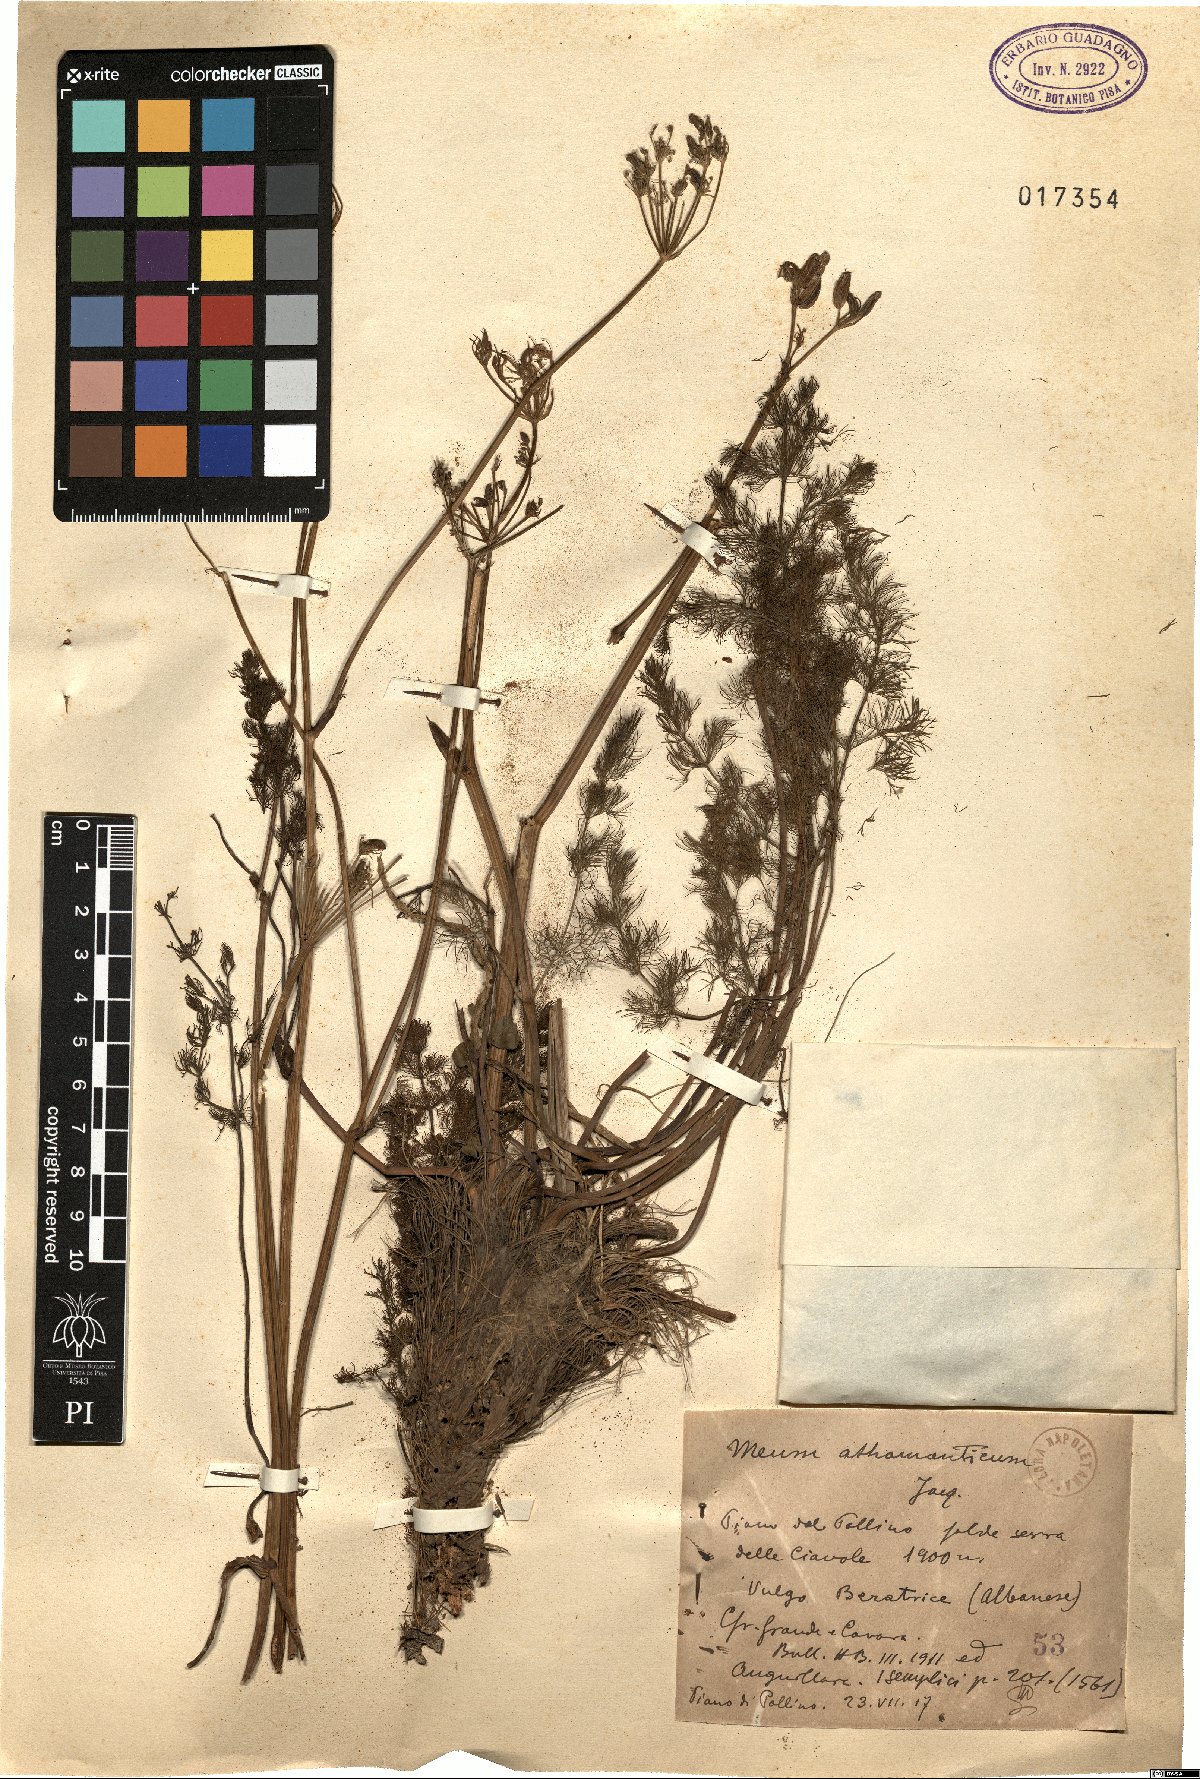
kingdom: Plantae
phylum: Tracheophyta
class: Magnoliopsida
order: Apiales
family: Apiaceae
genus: Meum
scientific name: Meum athamanticum
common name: Spignel
